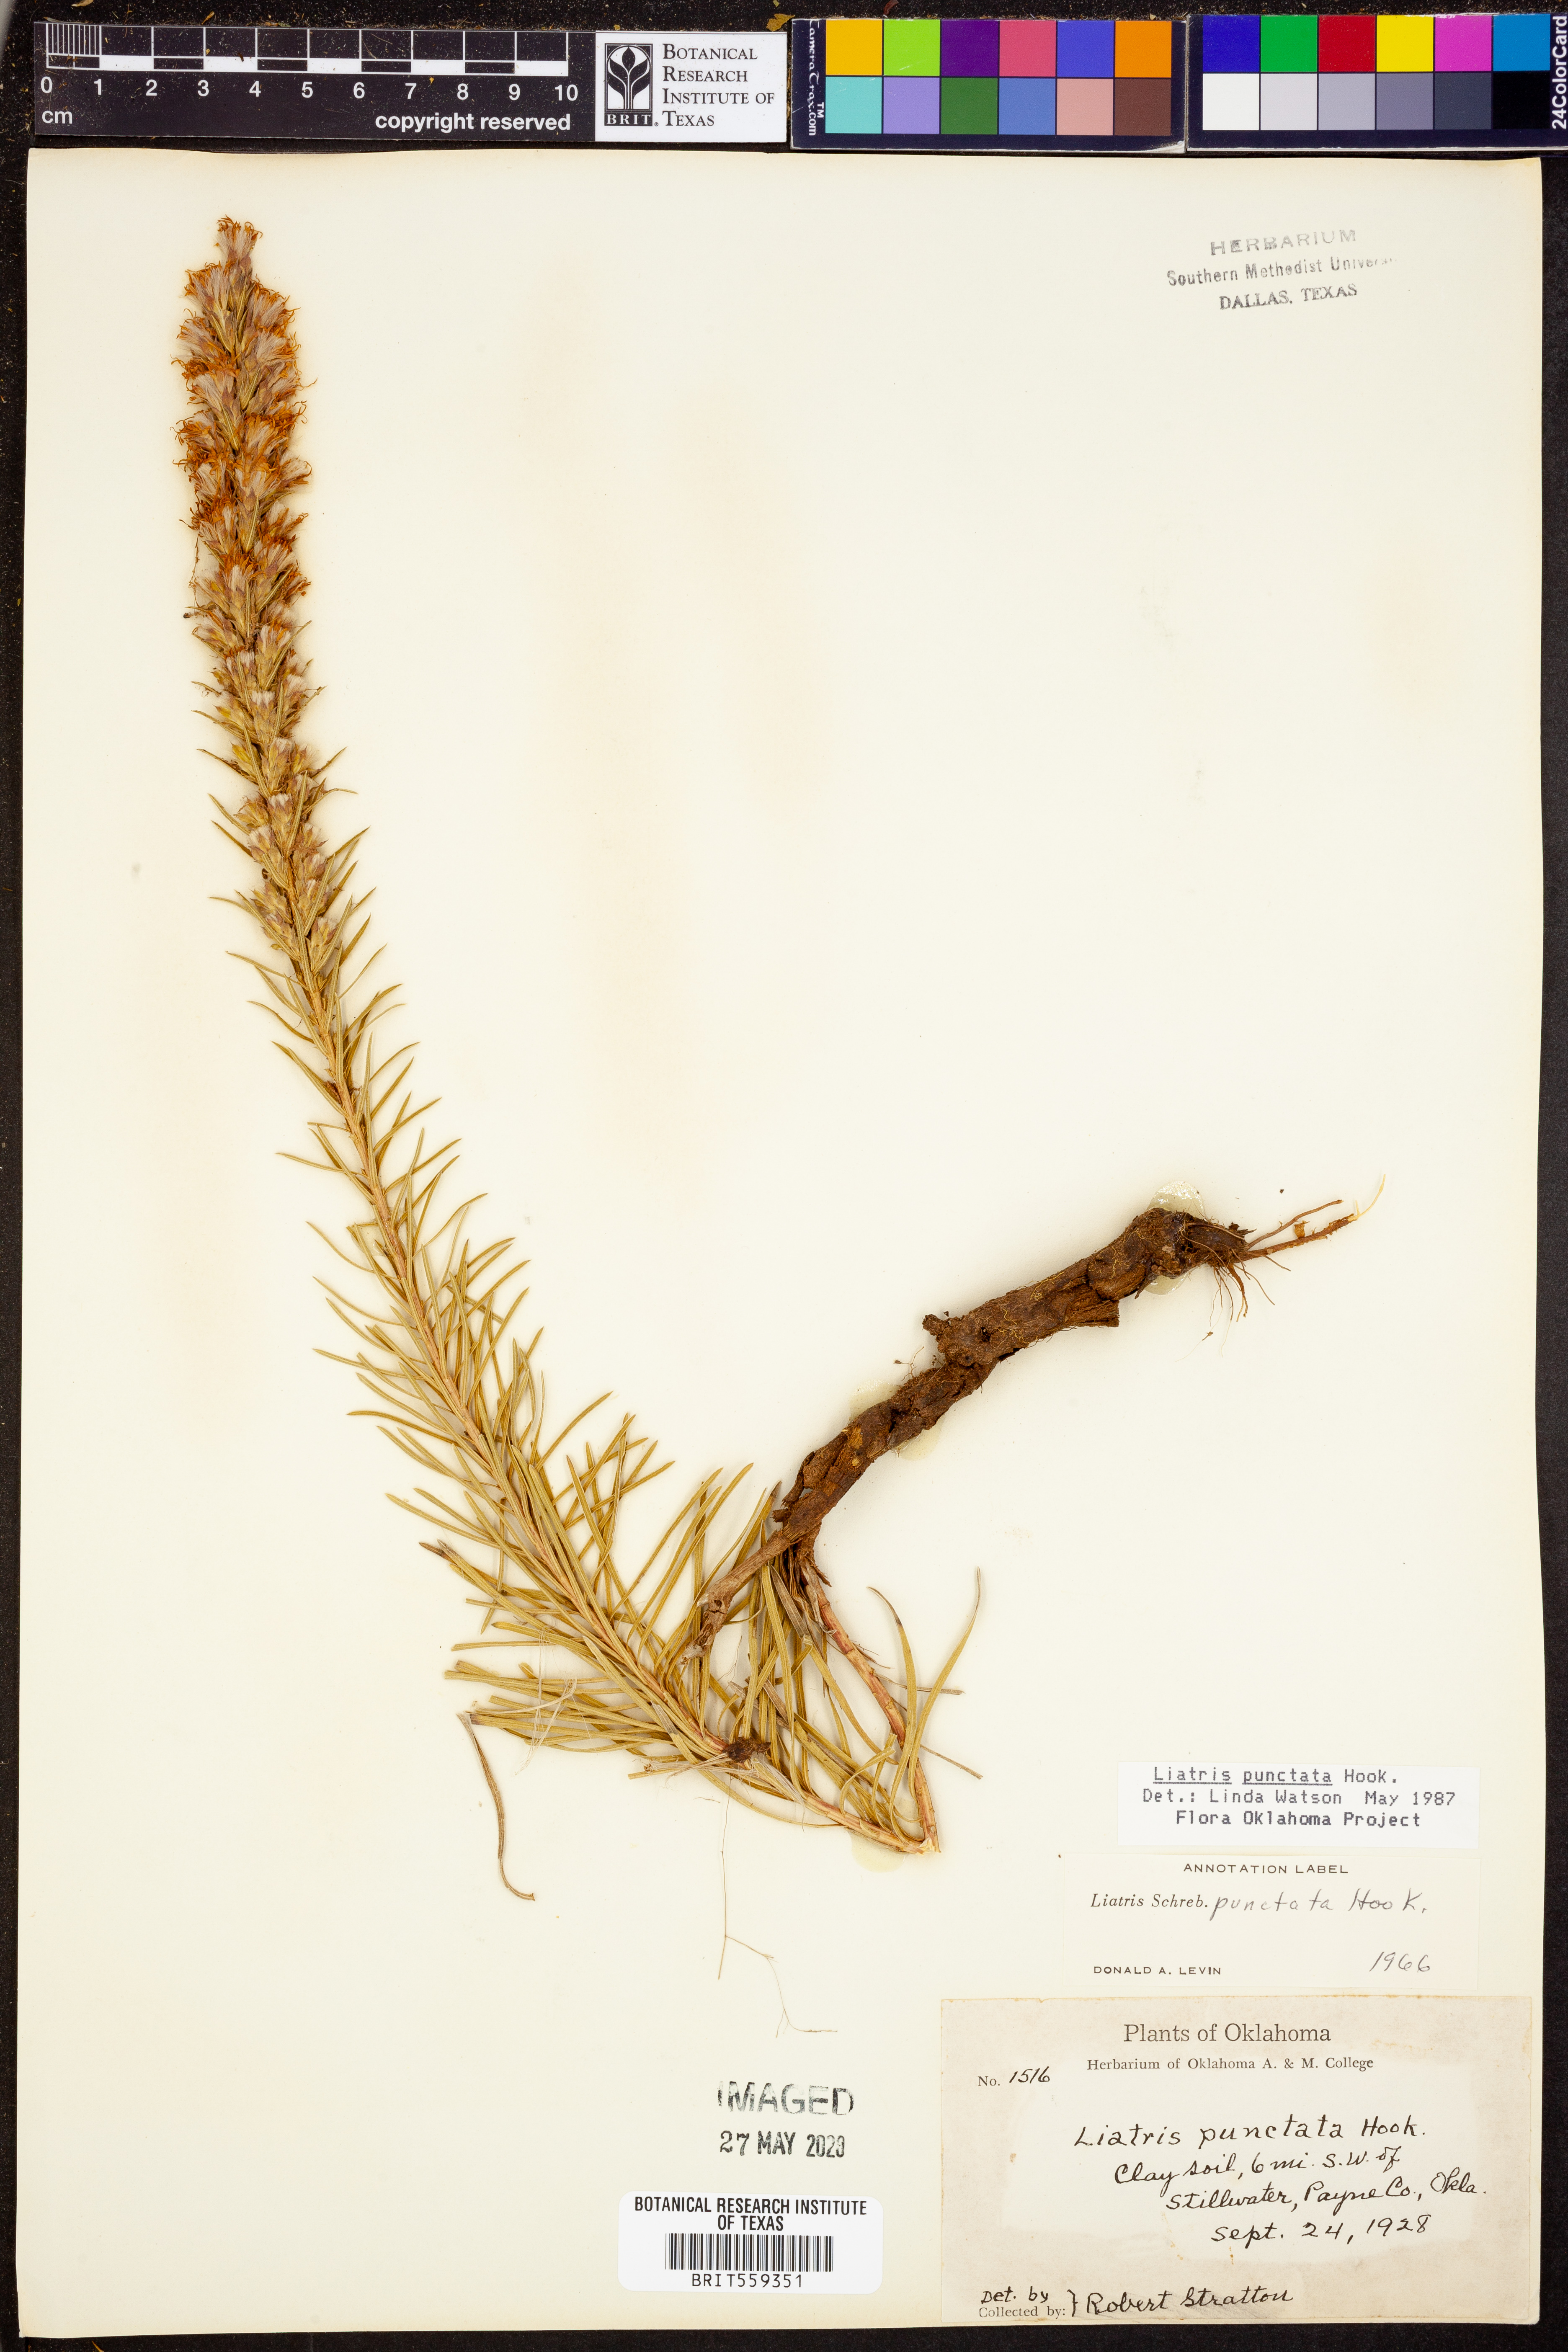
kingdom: Plantae
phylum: Tracheophyta
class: Magnoliopsida
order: Asterales
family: Asteraceae
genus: Liatris
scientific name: Liatris punctata
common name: Dotted gayfeather
